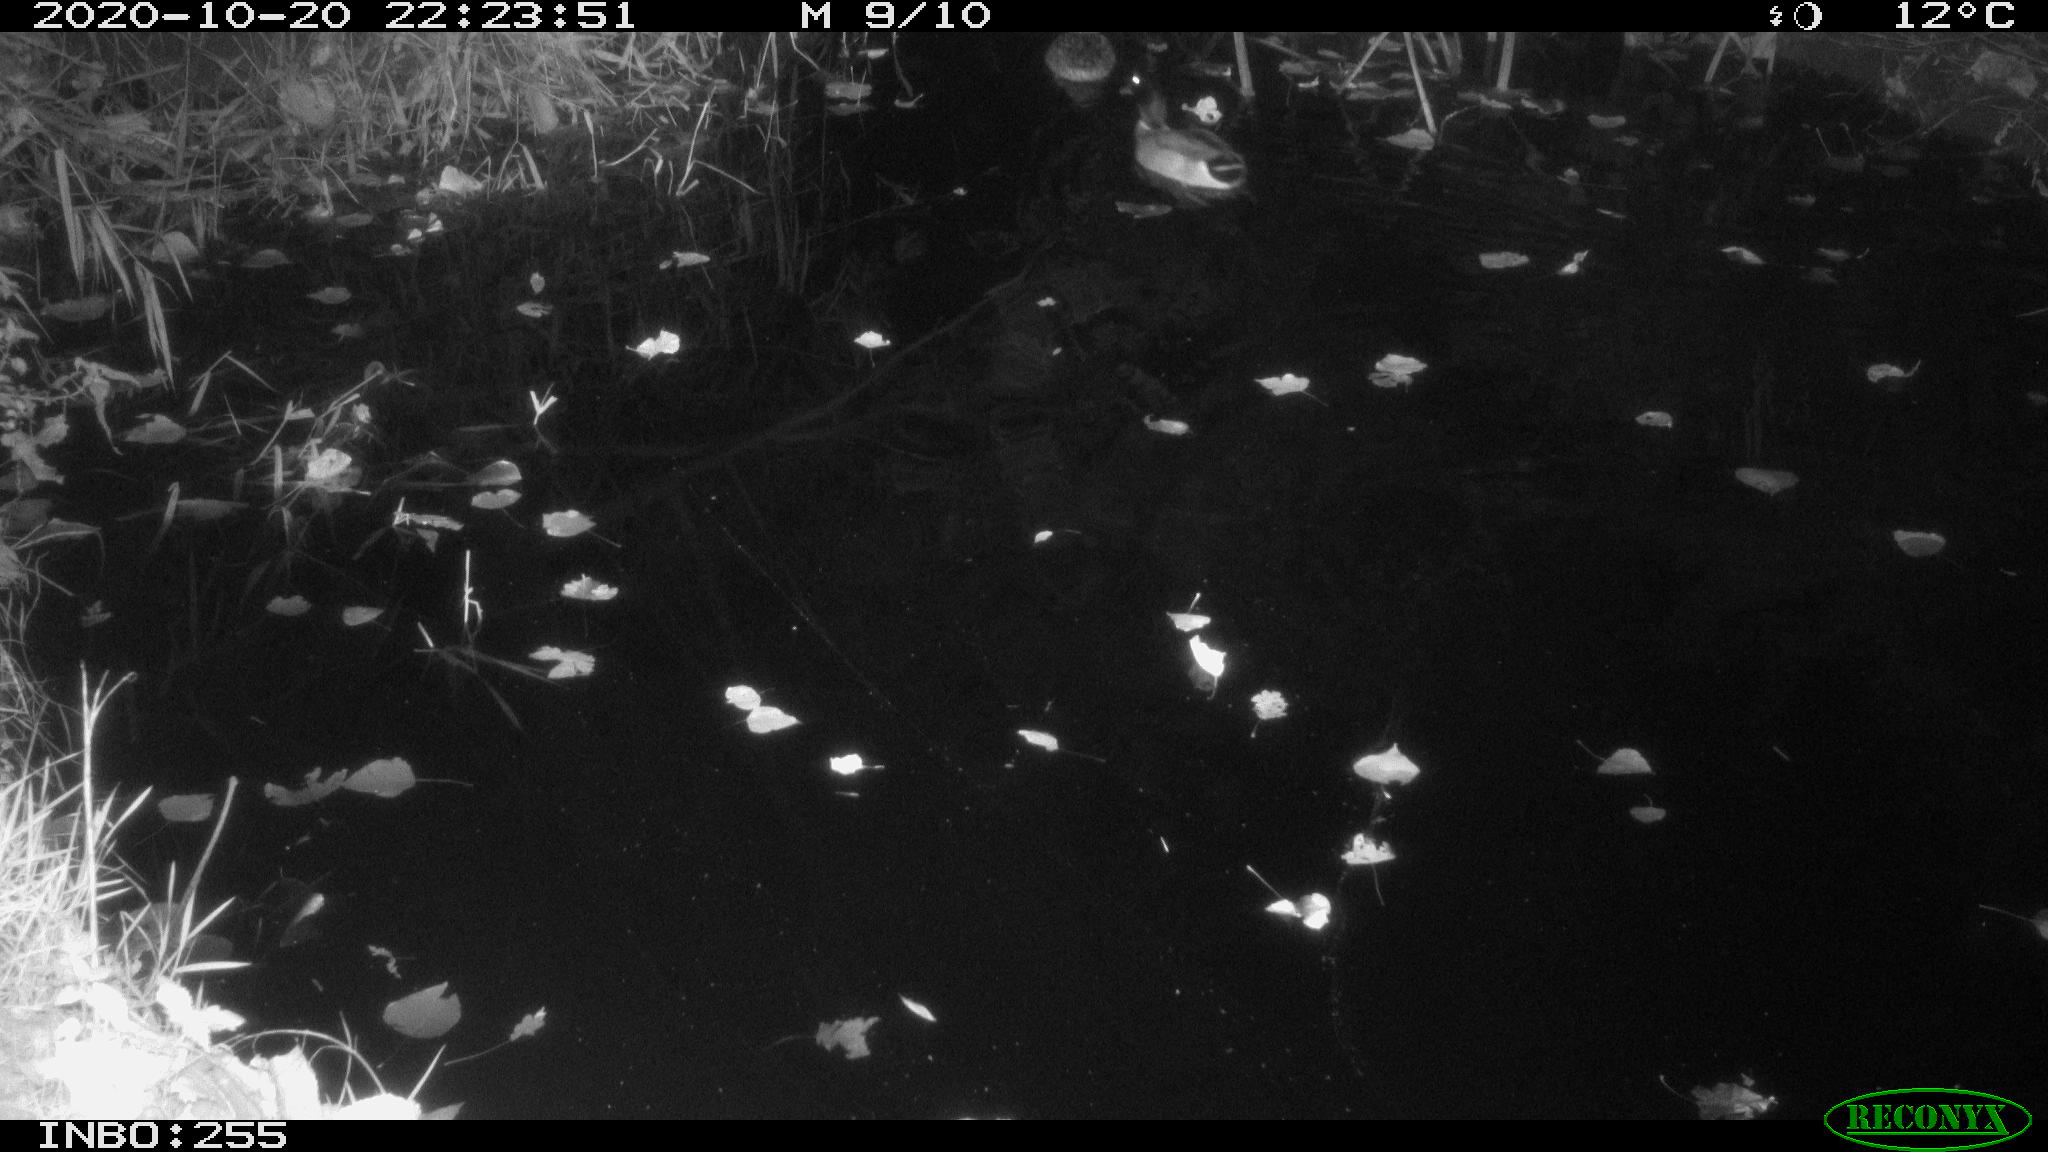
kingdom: Animalia
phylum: Chordata
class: Aves
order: Anseriformes
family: Anatidae
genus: Anas
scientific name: Anas platyrhynchos
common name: Mallard
